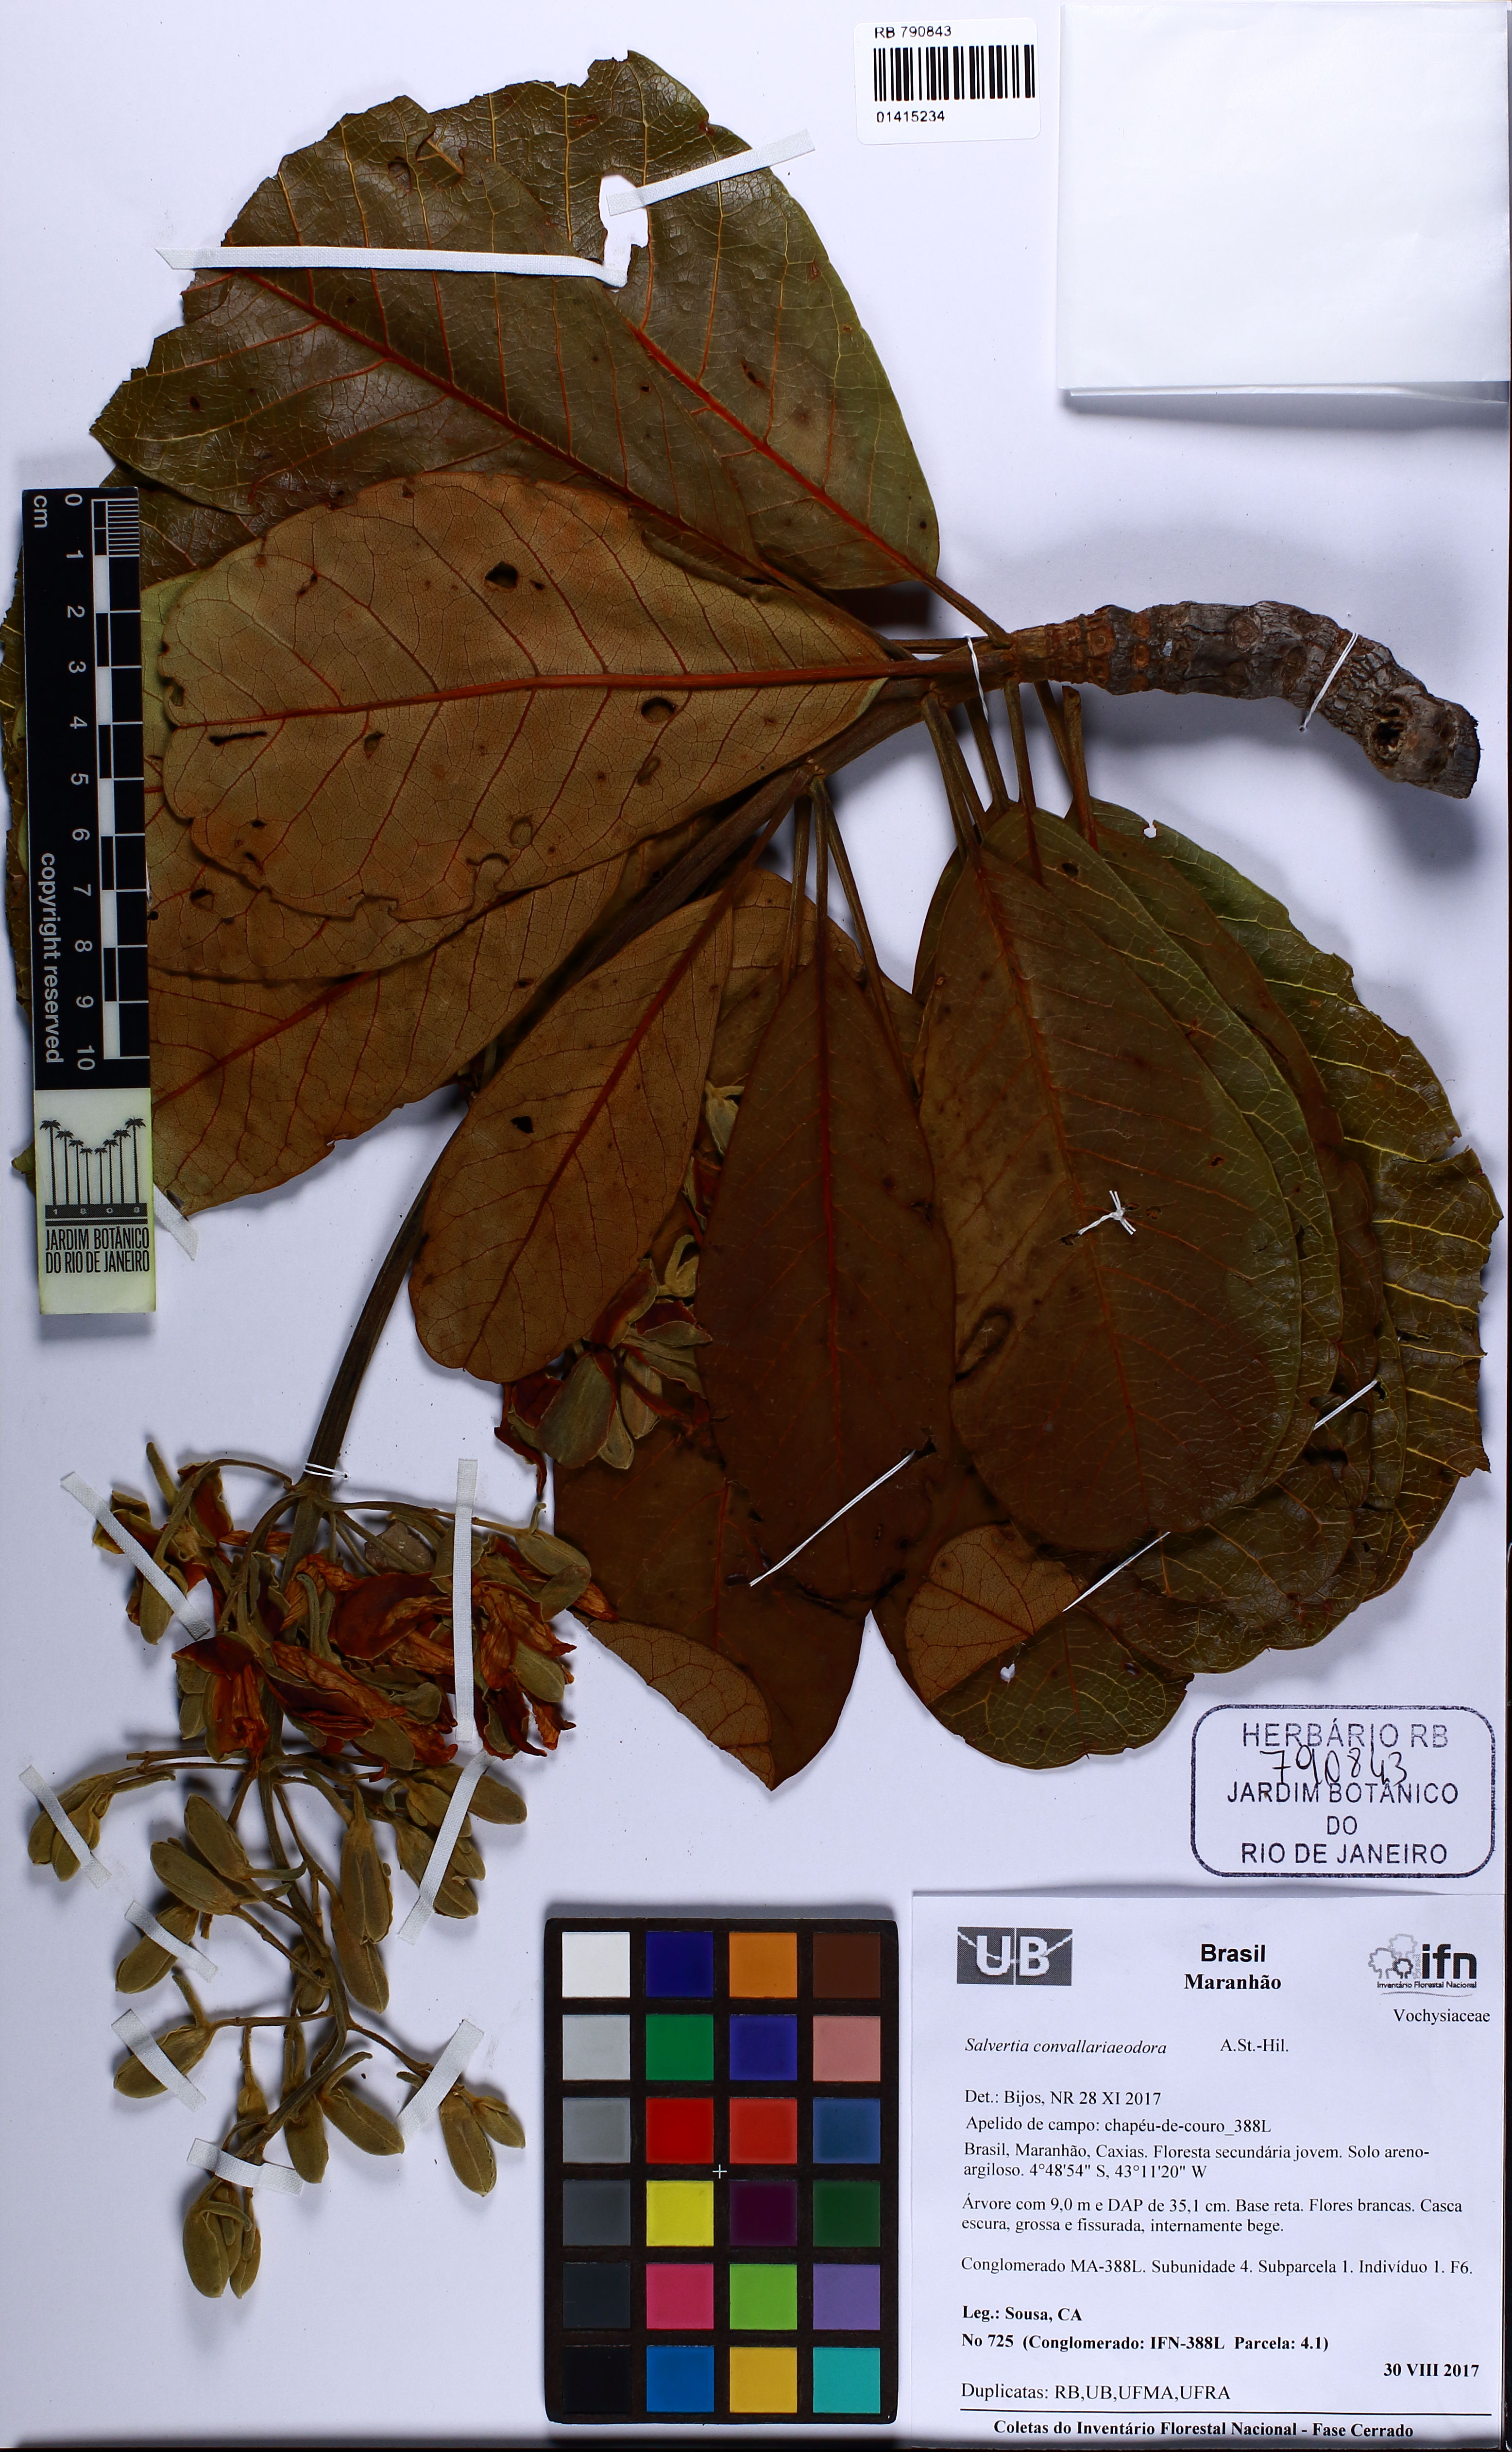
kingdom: Plantae
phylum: Tracheophyta
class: Magnoliopsida
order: Myrtales
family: Vochysiaceae
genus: Salvertia
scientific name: Salvertia convallariodora
